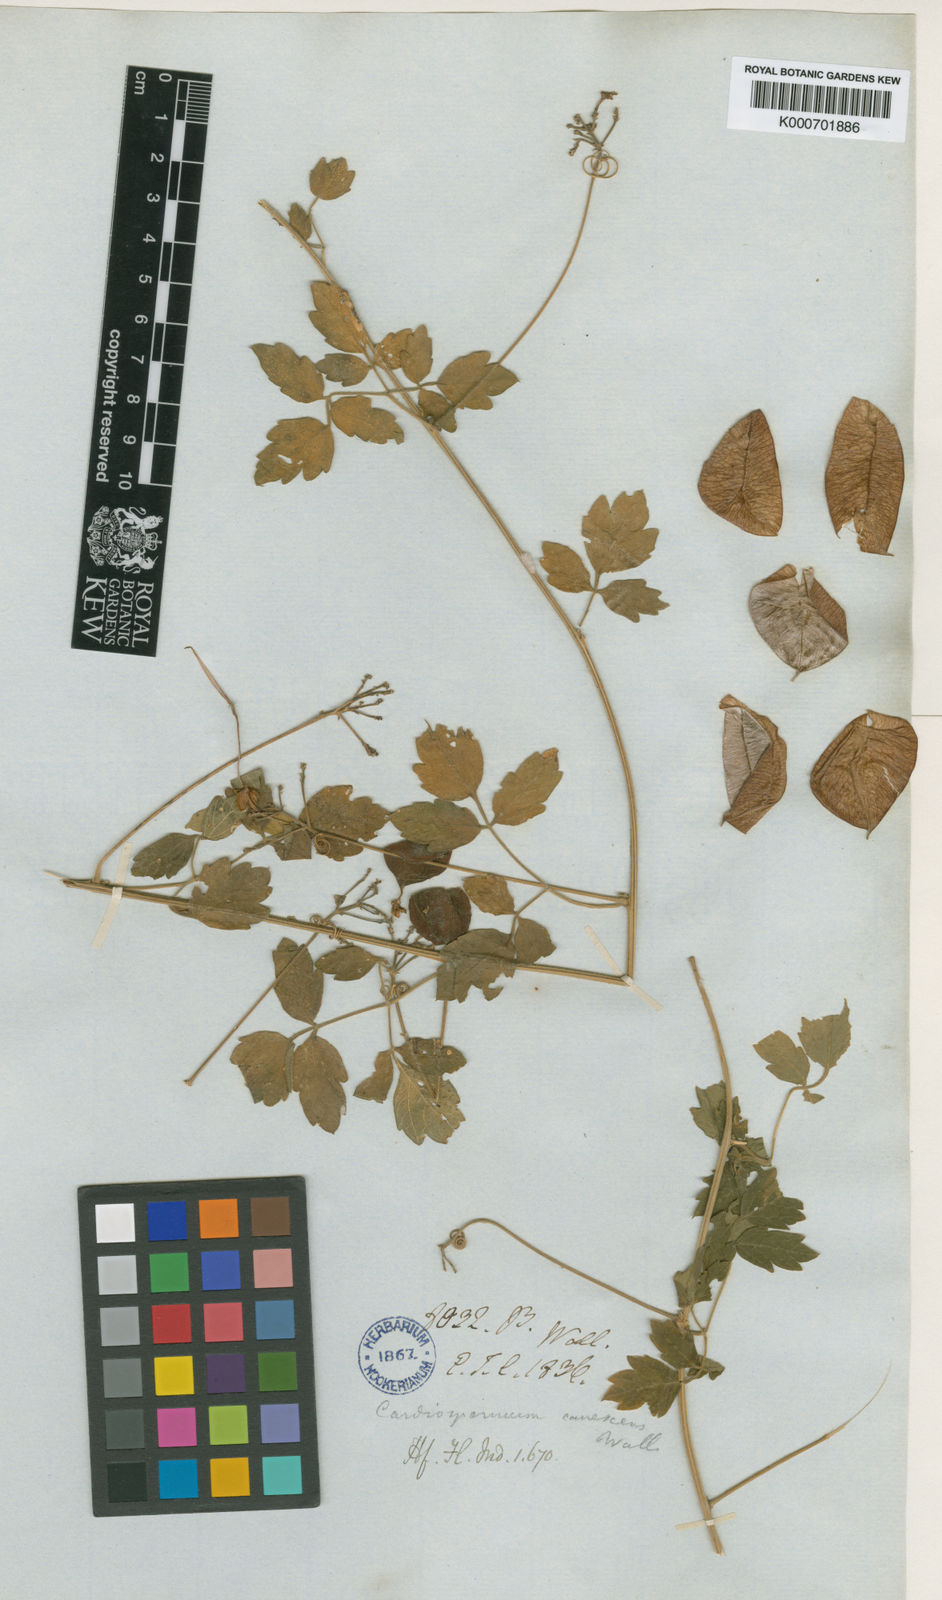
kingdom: Plantae
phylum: Tracheophyta
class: Magnoliopsida
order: Sapindales
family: Sapindaceae
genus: Cardiospermum
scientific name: Cardiospermum corindum
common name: Faux persil
